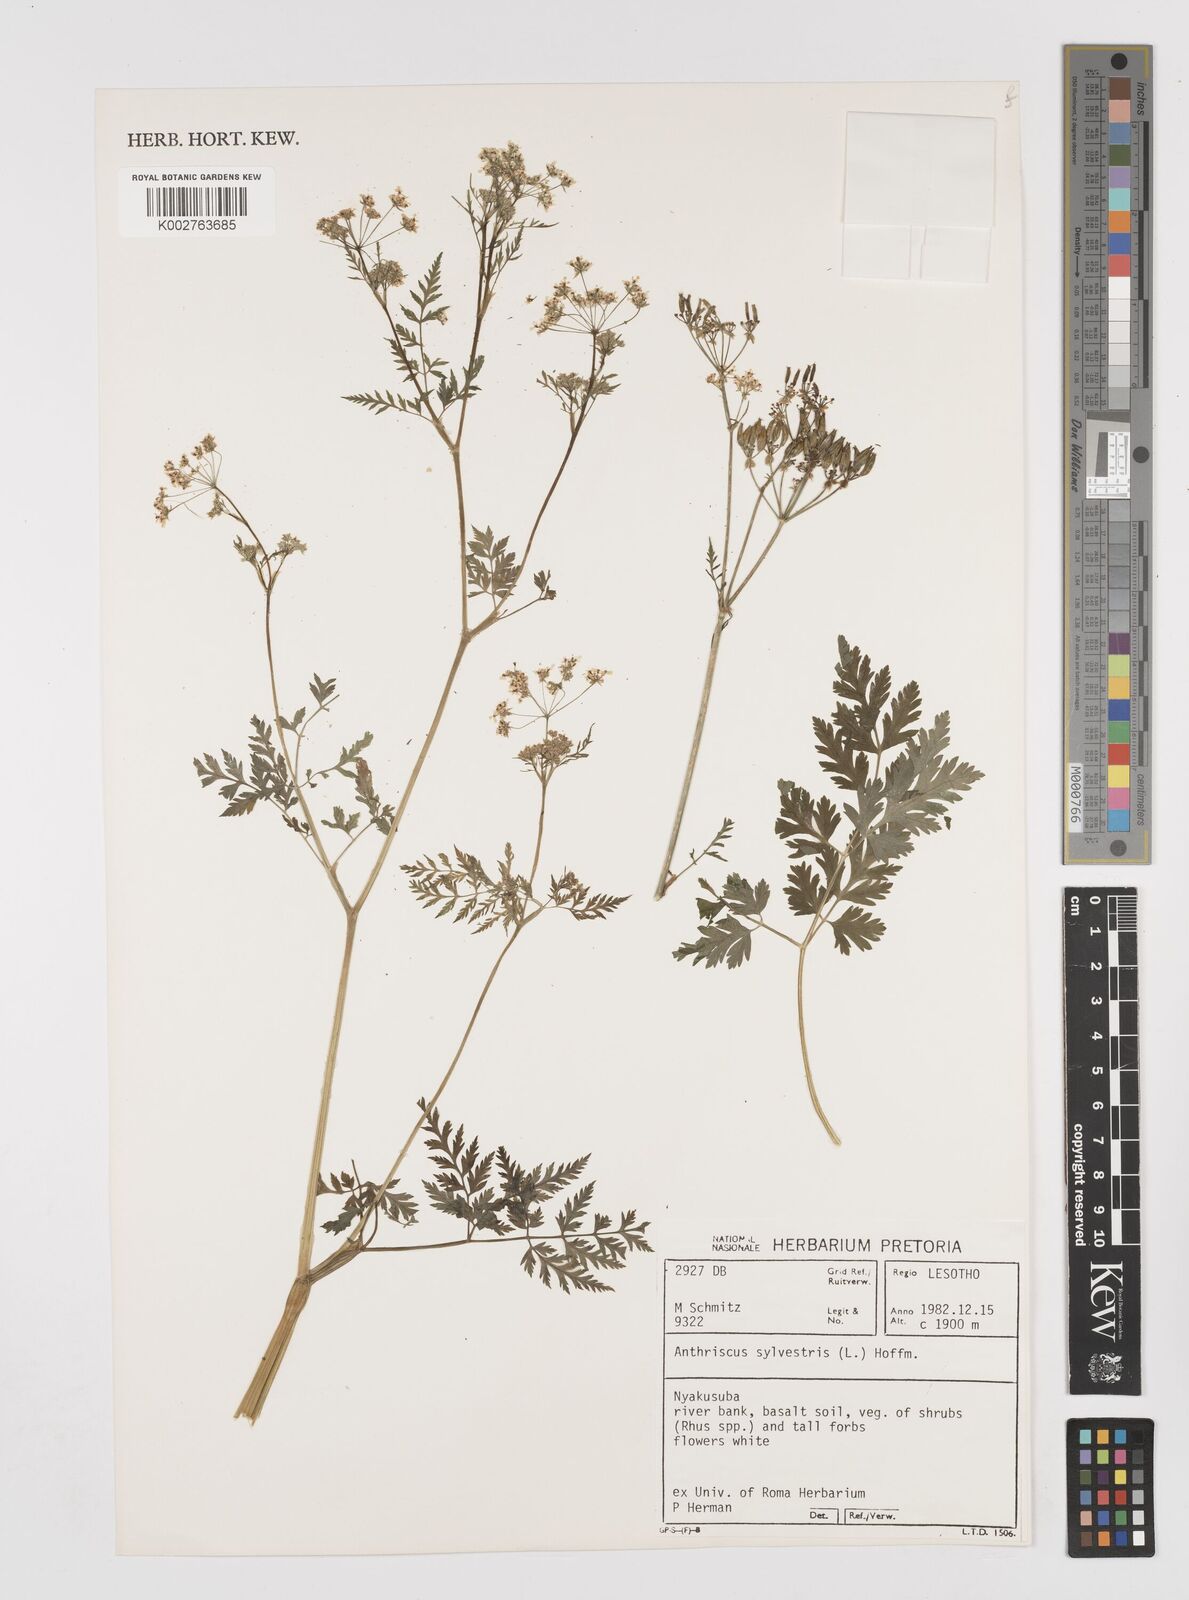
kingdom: Plantae
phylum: Tracheophyta
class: Magnoliopsida
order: Apiales
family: Apiaceae
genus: Anthriscus
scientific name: Anthriscus sylvestris
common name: Cow parsley
